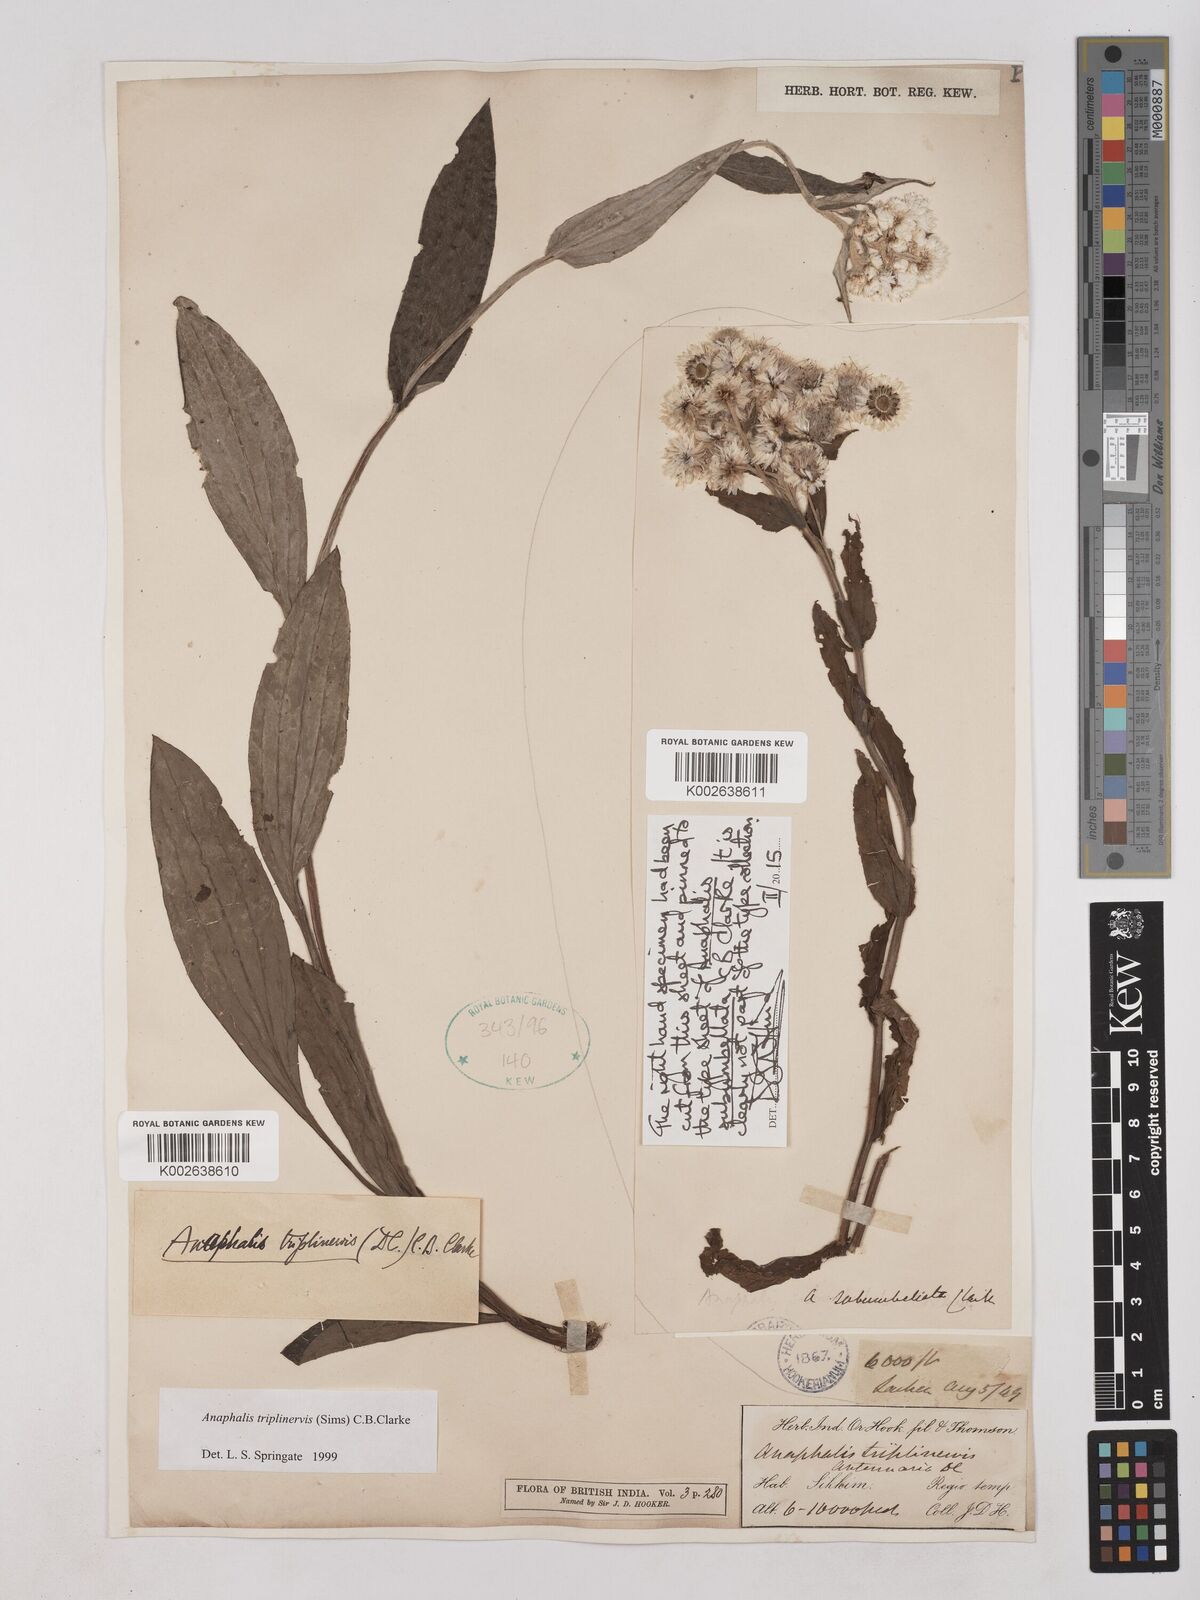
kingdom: Plantae
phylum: Tracheophyta
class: Magnoliopsida
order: Asterales
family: Asteraceae
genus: Anaphalis
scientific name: Anaphalis triplinervis
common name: Pearly everlasting
